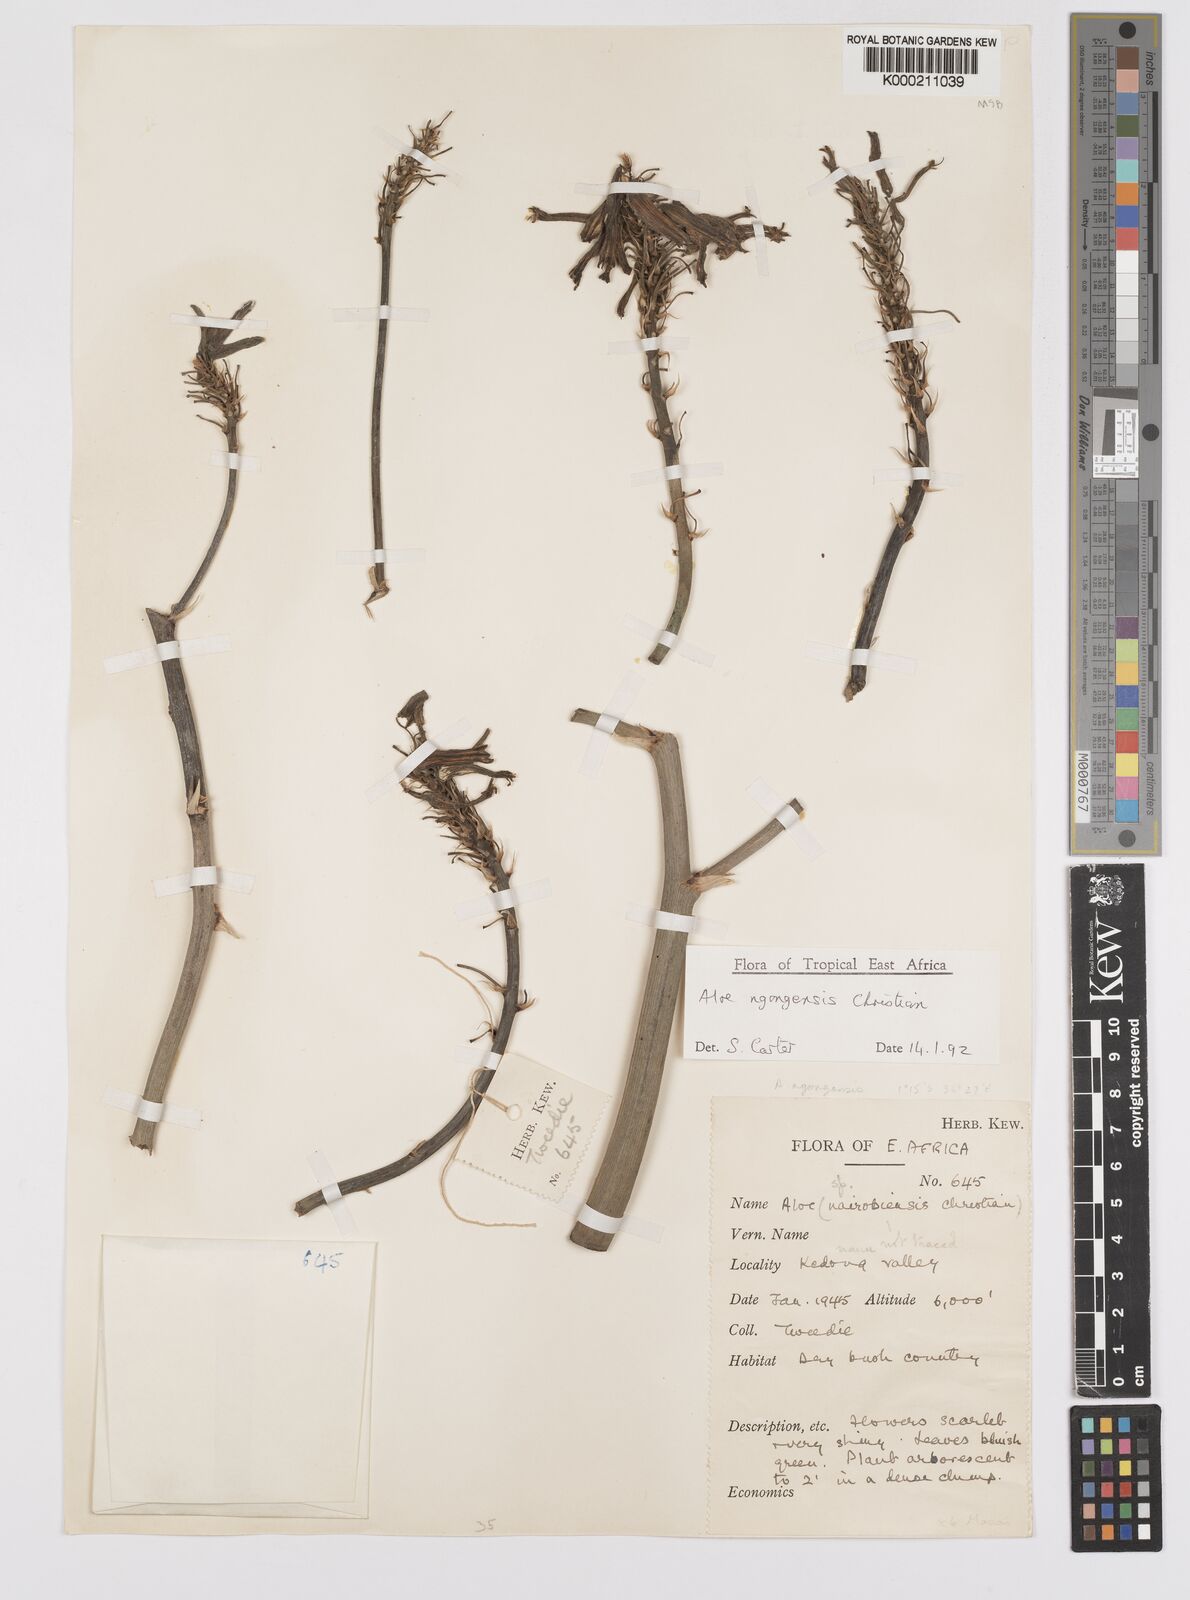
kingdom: Plantae
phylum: Tracheophyta
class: Liliopsida
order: Asparagales
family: Asphodelaceae
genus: Aloe
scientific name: Aloe ngongensis
